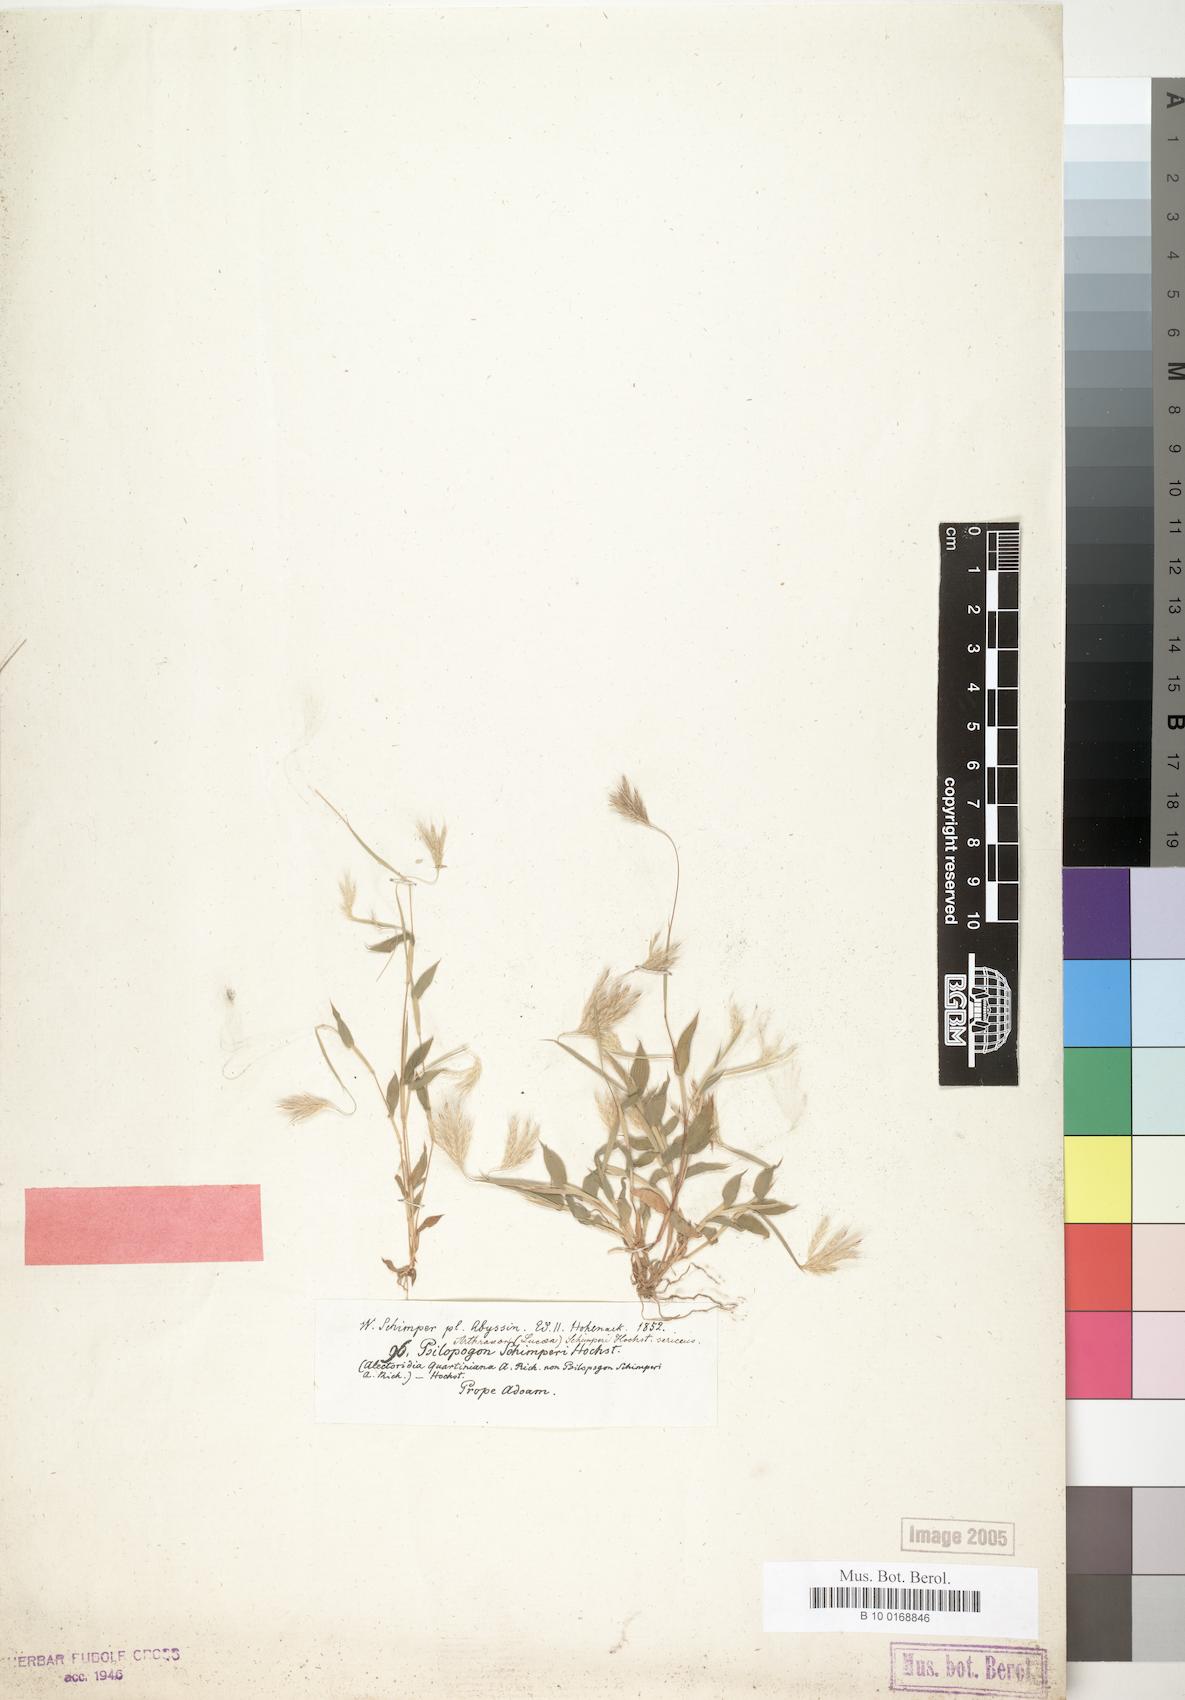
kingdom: Plantae
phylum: Tracheophyta
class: Liliopsida
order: Poales
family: Poaceae
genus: Arthraxon
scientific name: Arthraxon hispidus
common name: Small carpgrass
